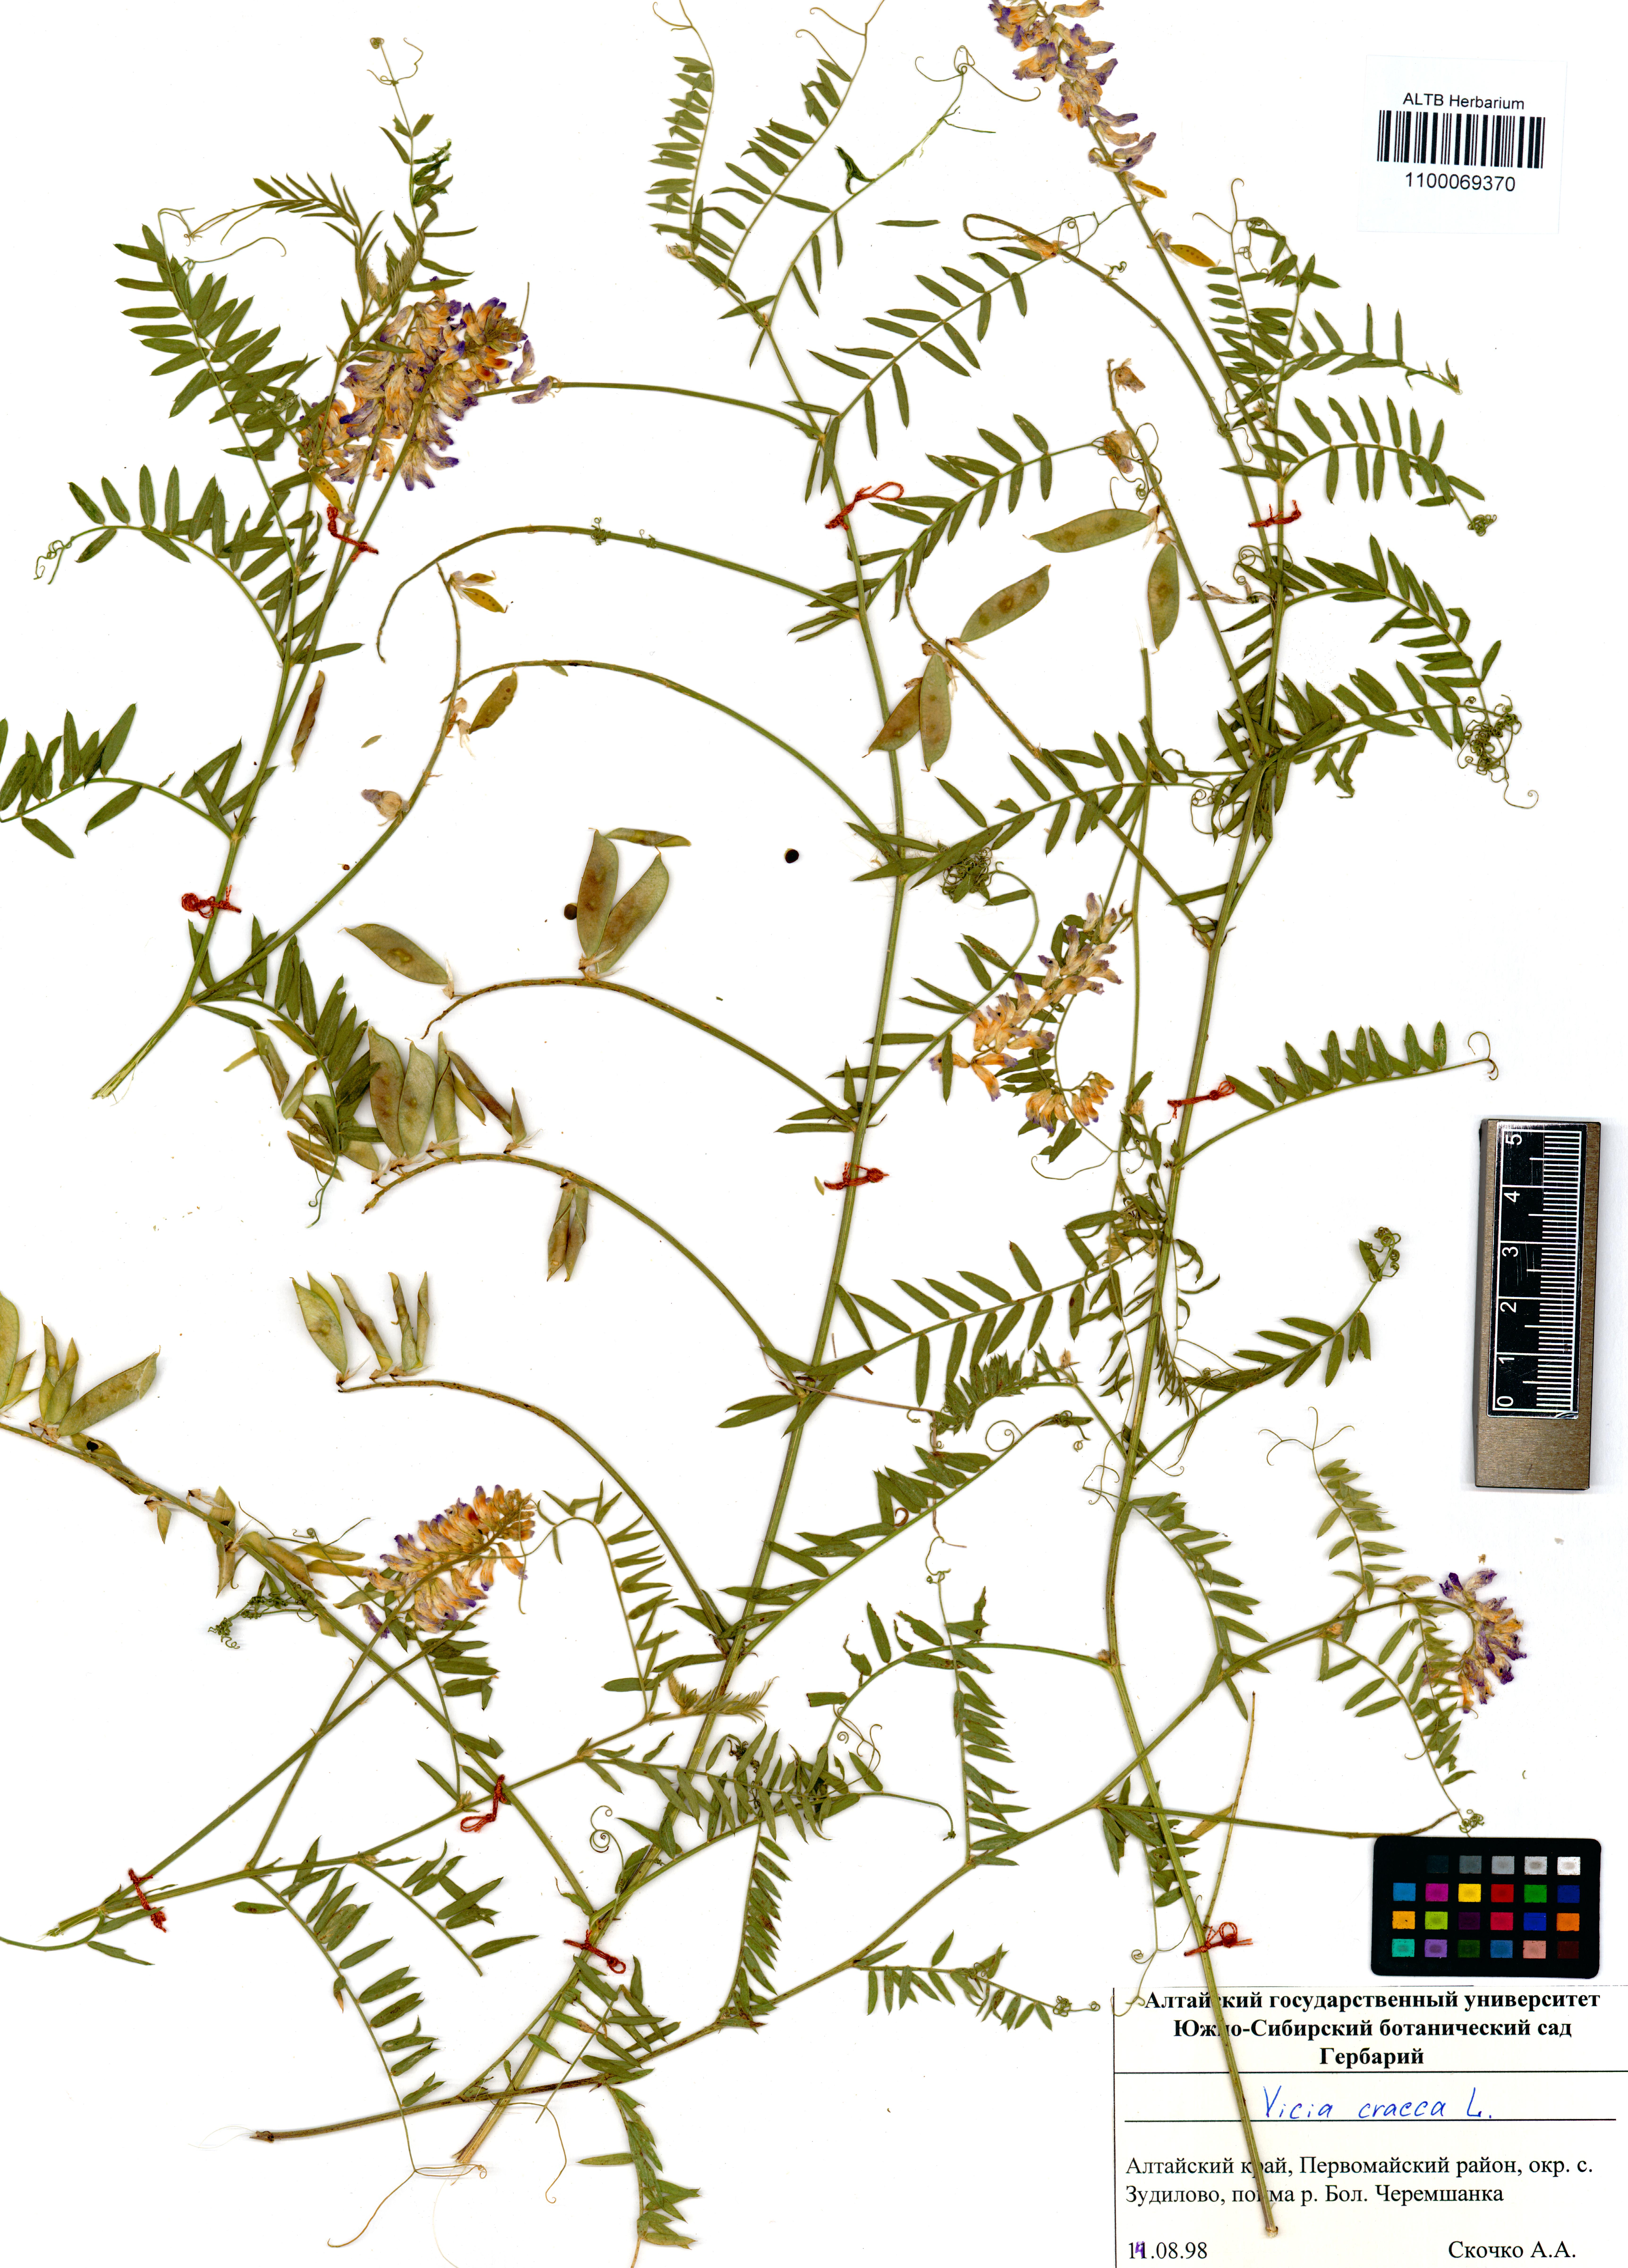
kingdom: Plantae
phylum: Tracheophyta
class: Magnoliopsida
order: Fabales
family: Fabaceae
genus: Vicia
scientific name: Vicia cracca
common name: Bird vetch
